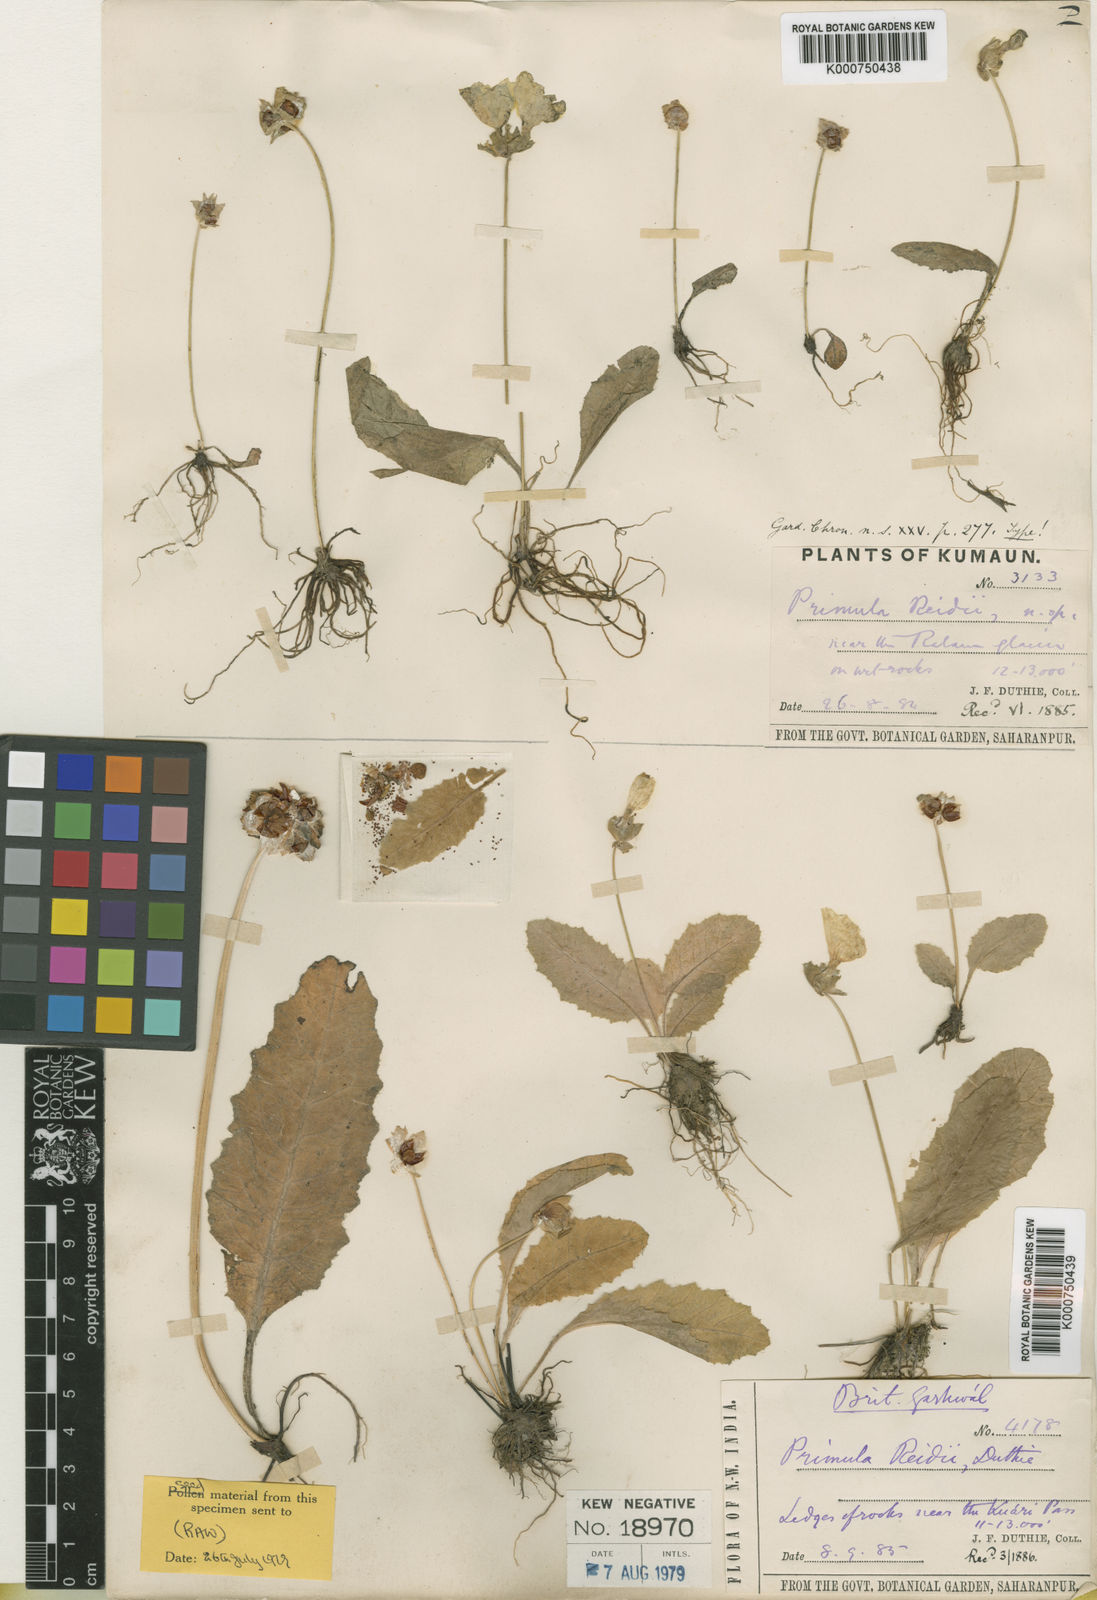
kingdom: Plantae
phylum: Tracheophyta
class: Magnoliopsida
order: Ericales
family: Primulaceae
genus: Primula
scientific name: Primula reidii
